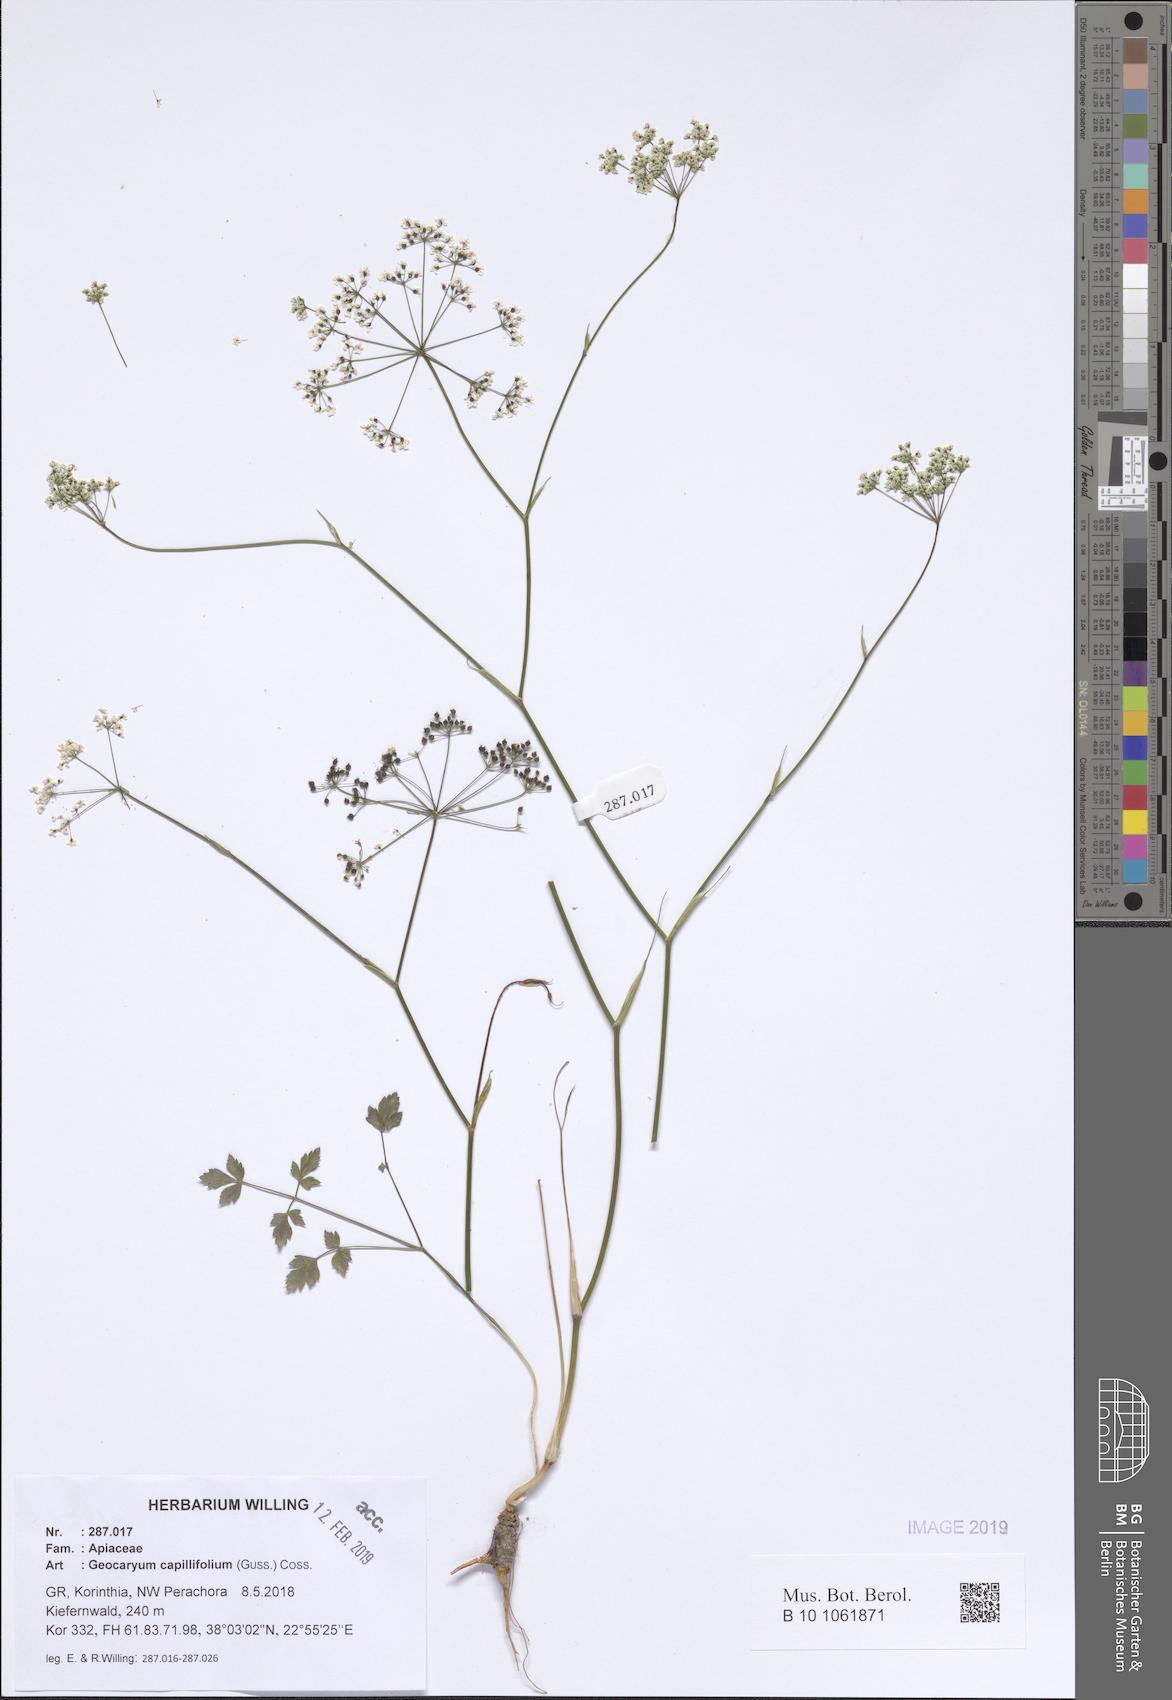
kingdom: Plantae
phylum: Tracheophyta
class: Magnoliopsida
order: Apiales
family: Apiaceae
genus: Geocaryum
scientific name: Geocaryum capillifolium
